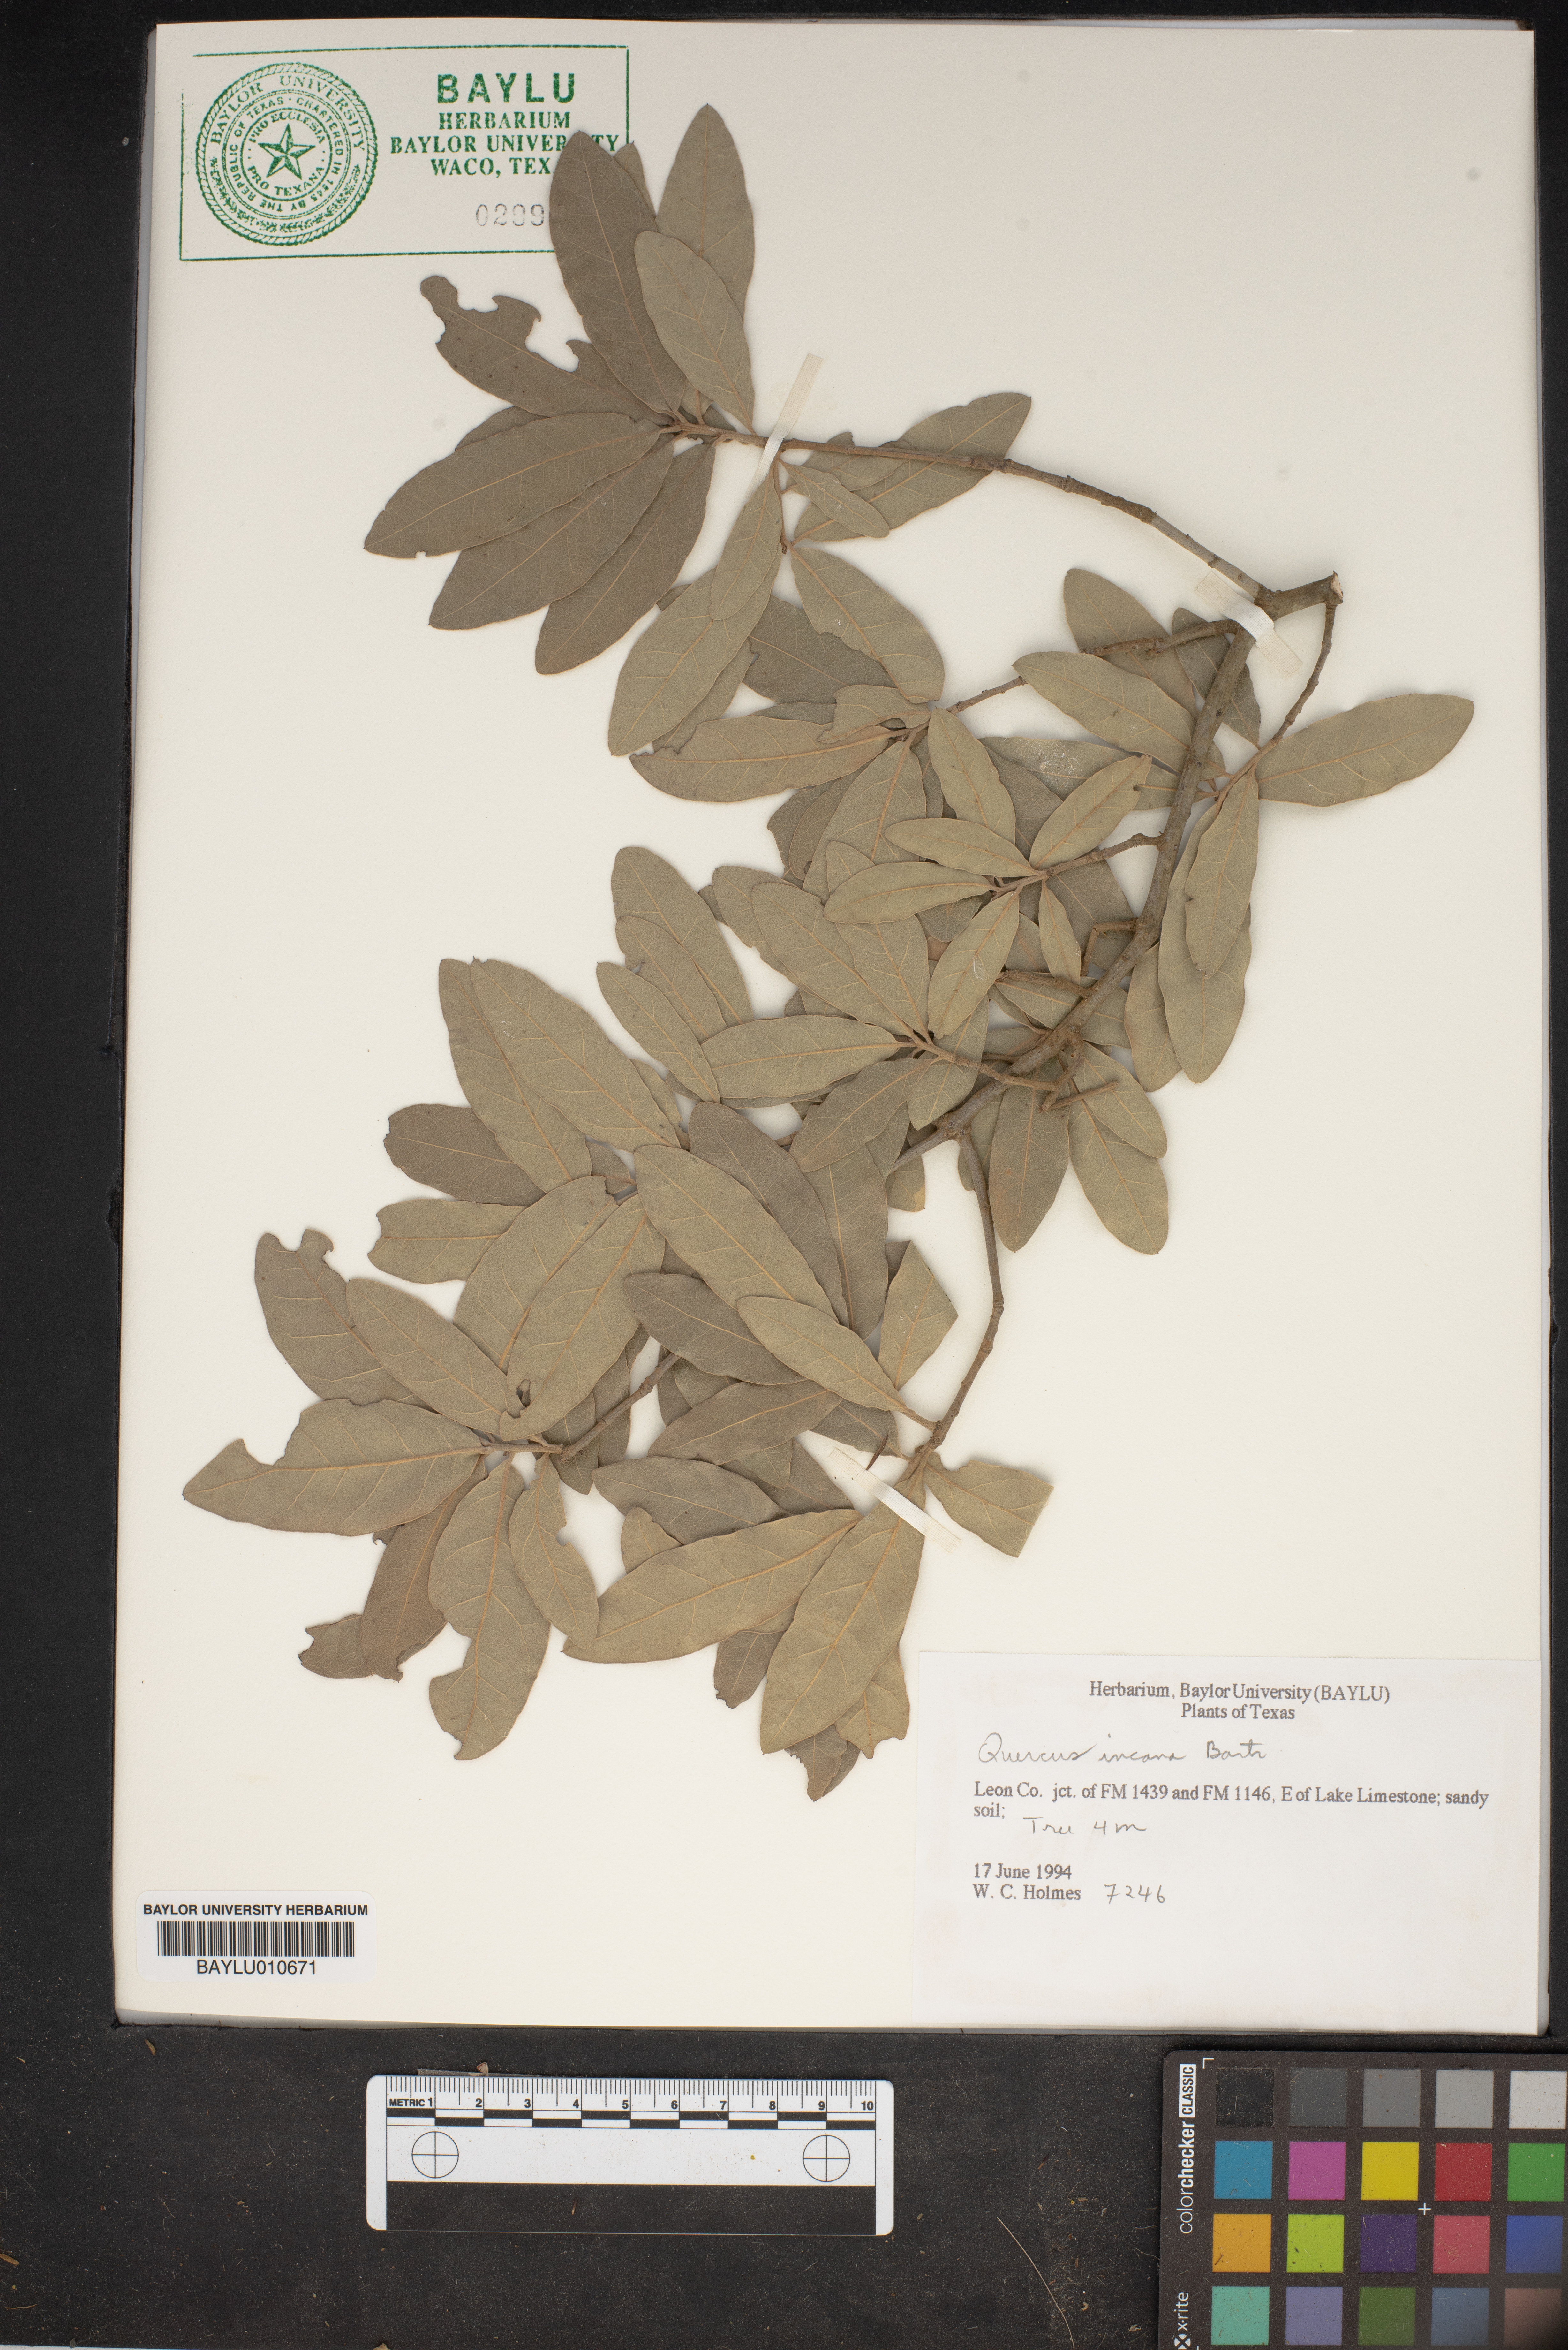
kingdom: Plantae
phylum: Tracheophyta
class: Magnoliopsida
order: Fagales
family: Fagaceae
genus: Quercus
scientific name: Quercus incana
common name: Bluejack oak
